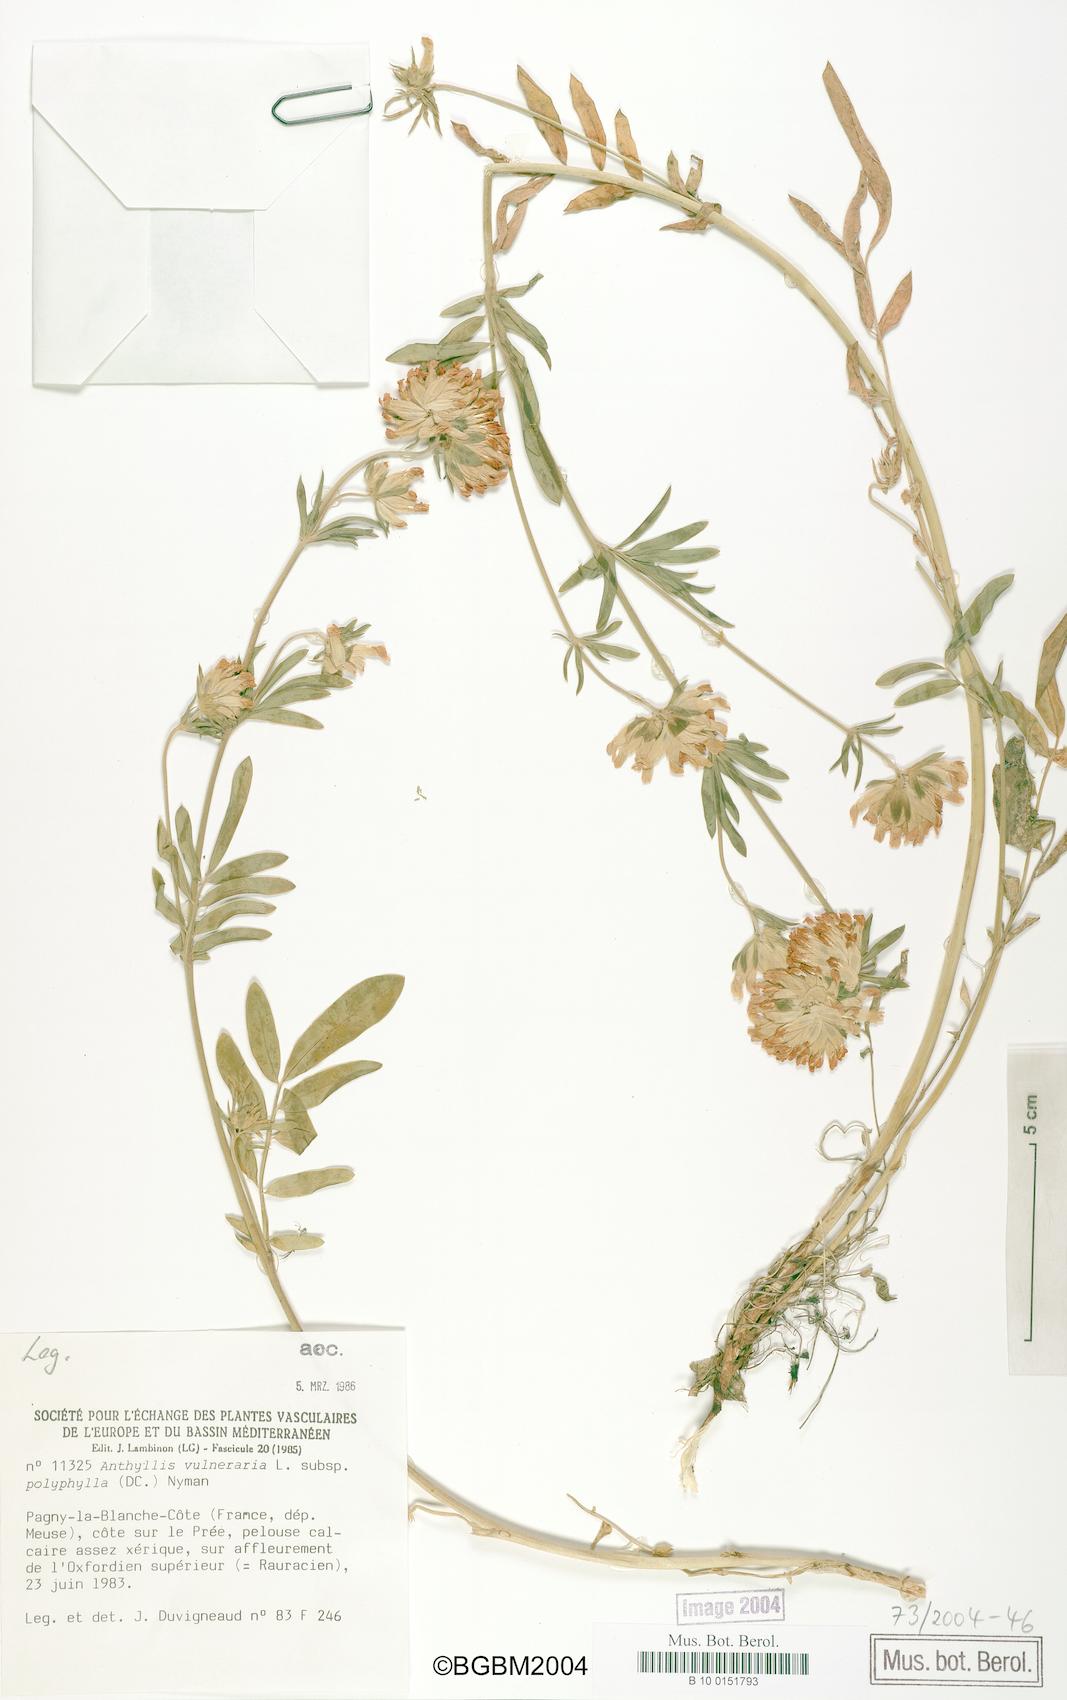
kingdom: Plantae
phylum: Tracheophyta
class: Magnoliopsida
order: Fabales
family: Fabaceae
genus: Anthyllis
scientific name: Anthyllis vulneraria
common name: Kidney vetch
